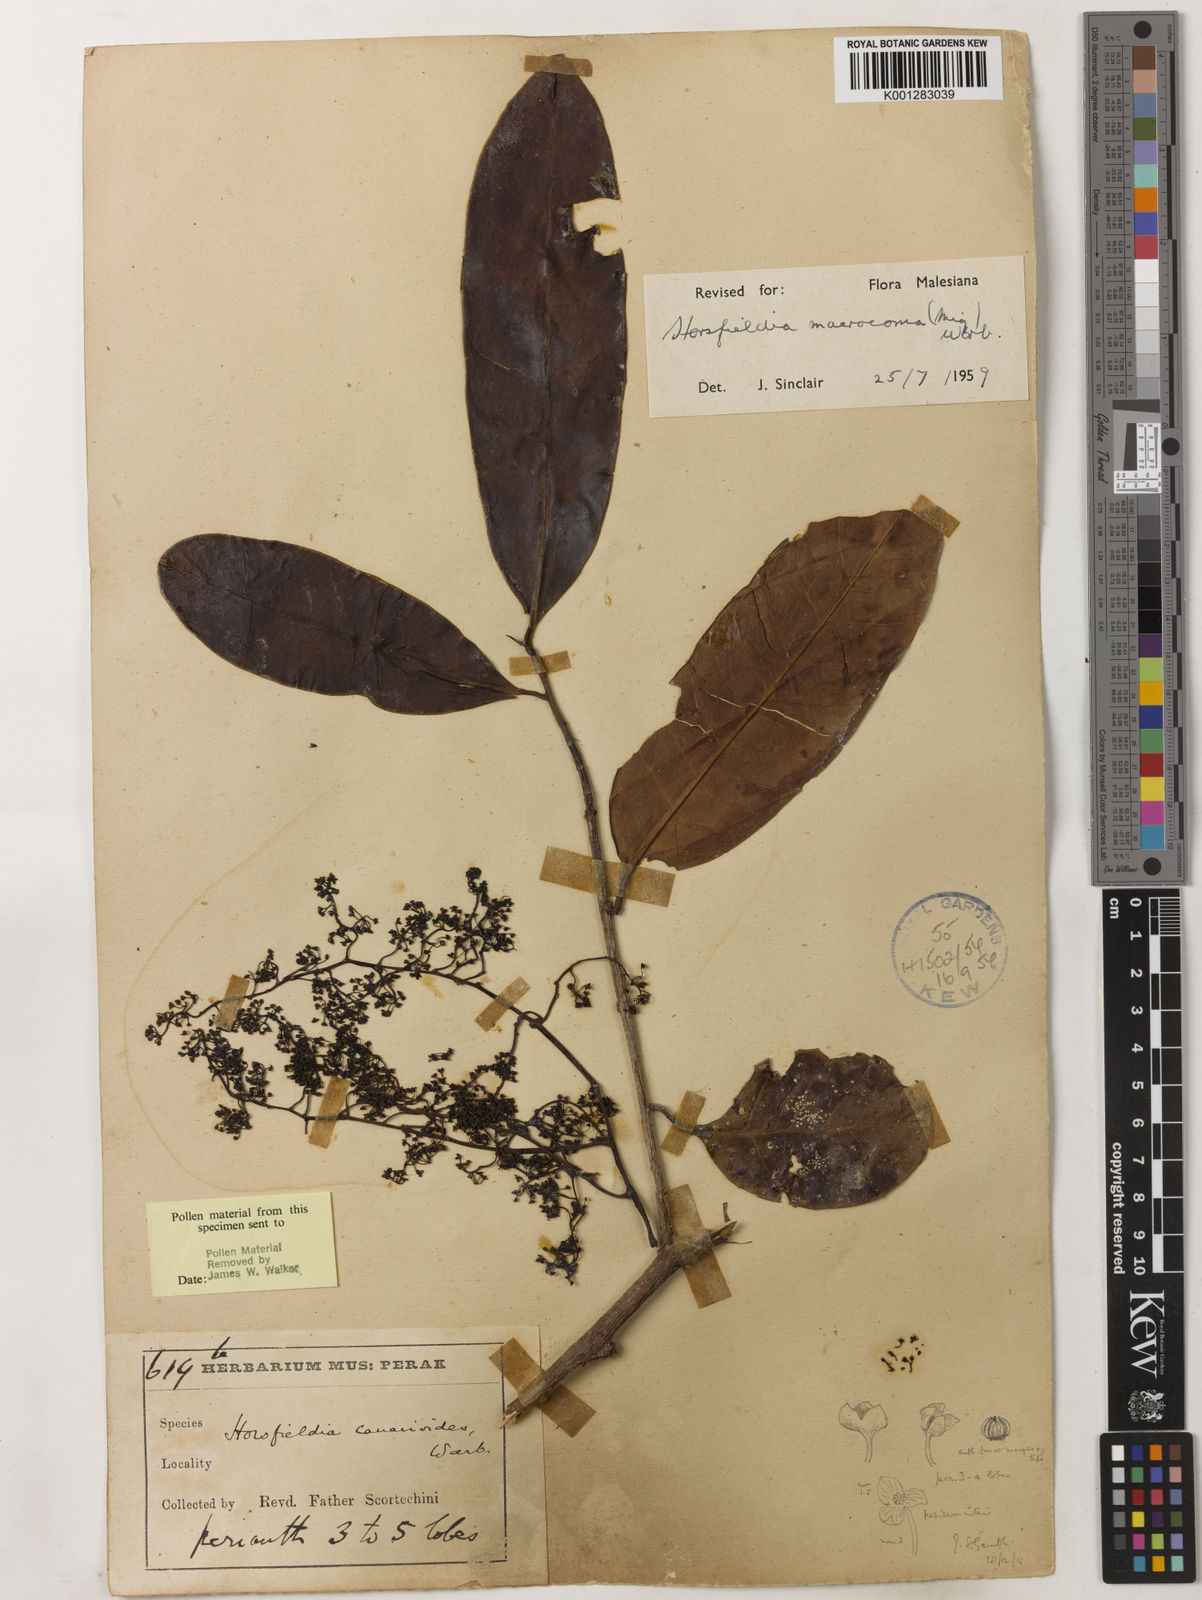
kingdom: Plantae
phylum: Tracheophyta
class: Magnoliopsida
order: Magnoliales
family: Myristicaceae
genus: Endocomia
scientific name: Endocomia canarioides
